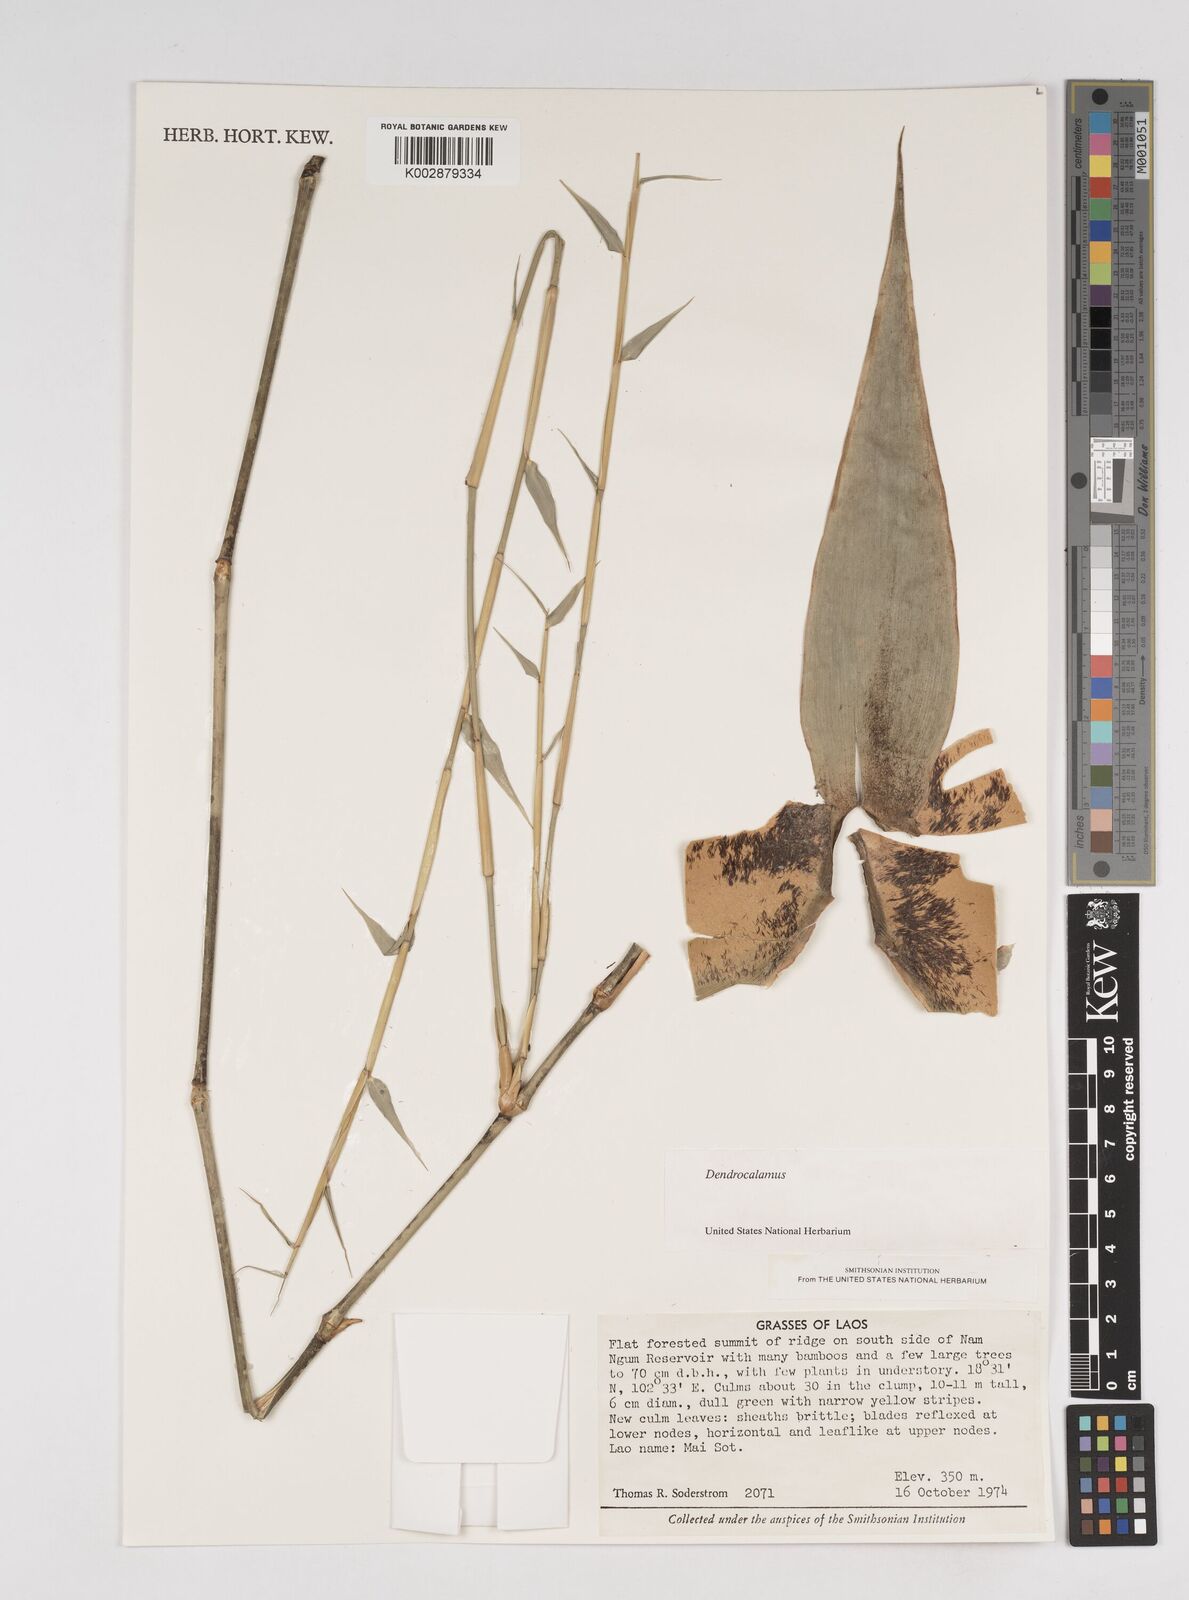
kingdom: Plantae
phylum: Tracheophyta
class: Liliopsida
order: Poales
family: Poaceae
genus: Dendrocalamus
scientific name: Dendrocalamus
